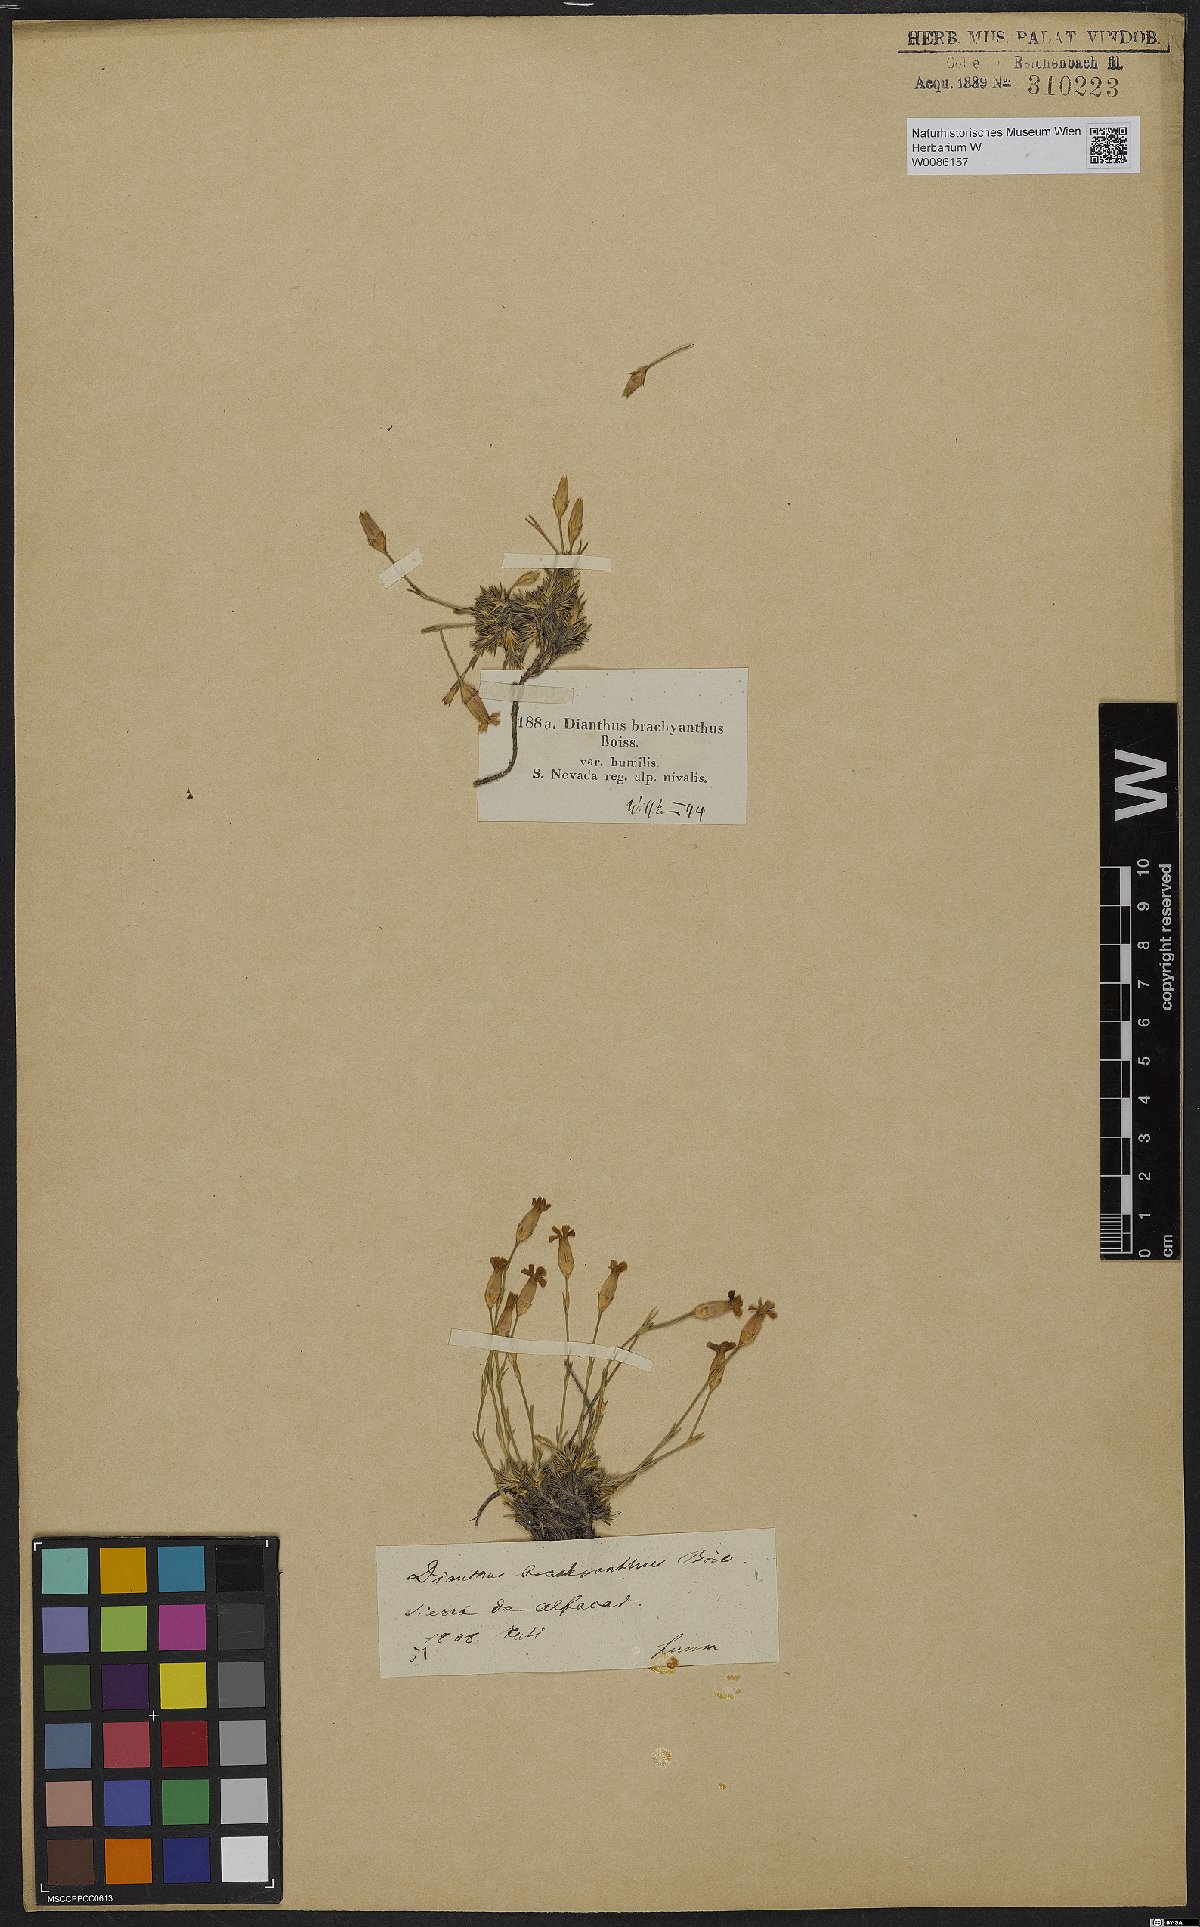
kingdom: Plantae
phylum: Tracheophyta
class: Magnoliopsida
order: Caryophyllales
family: Caryophyllaceae
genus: Dianthus
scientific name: Dianthus pungens
